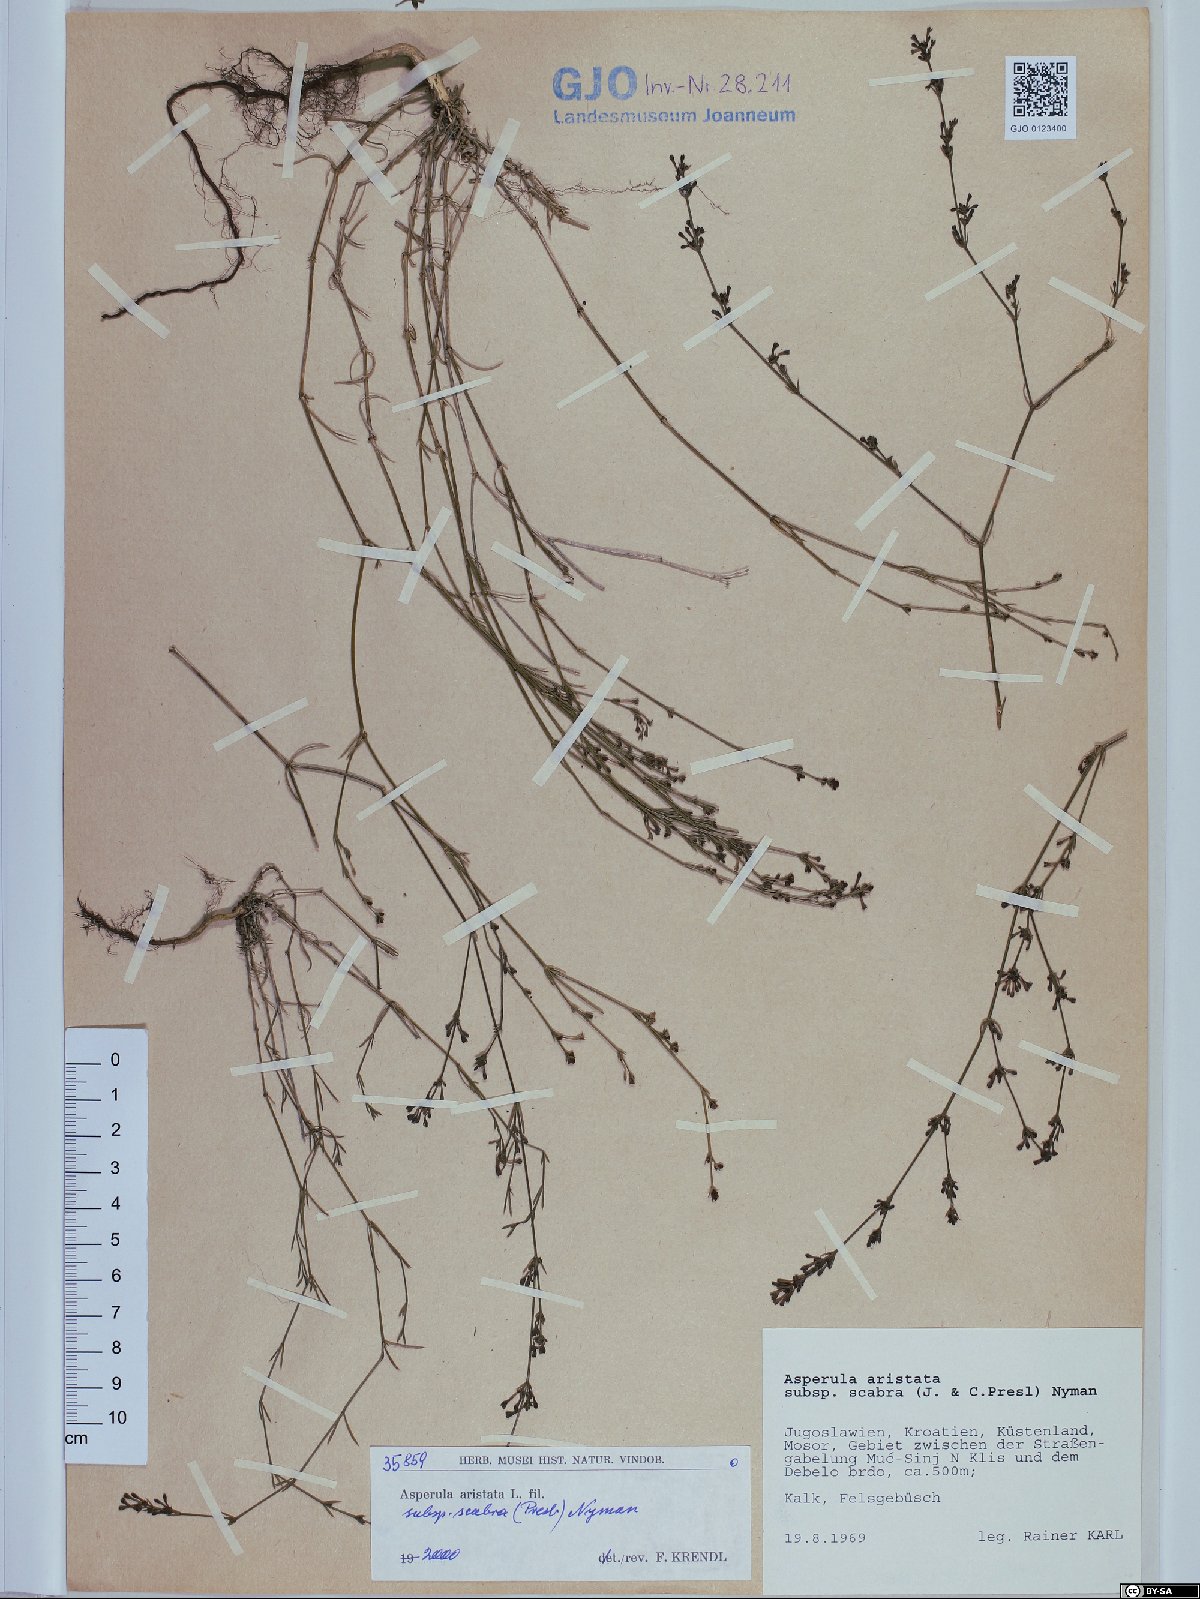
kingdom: Plantae
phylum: Tracheophyta
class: Magnoliopsida
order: Gentianales
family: Rubiaceae
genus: Cynanchica
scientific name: Cynanchica aristata
